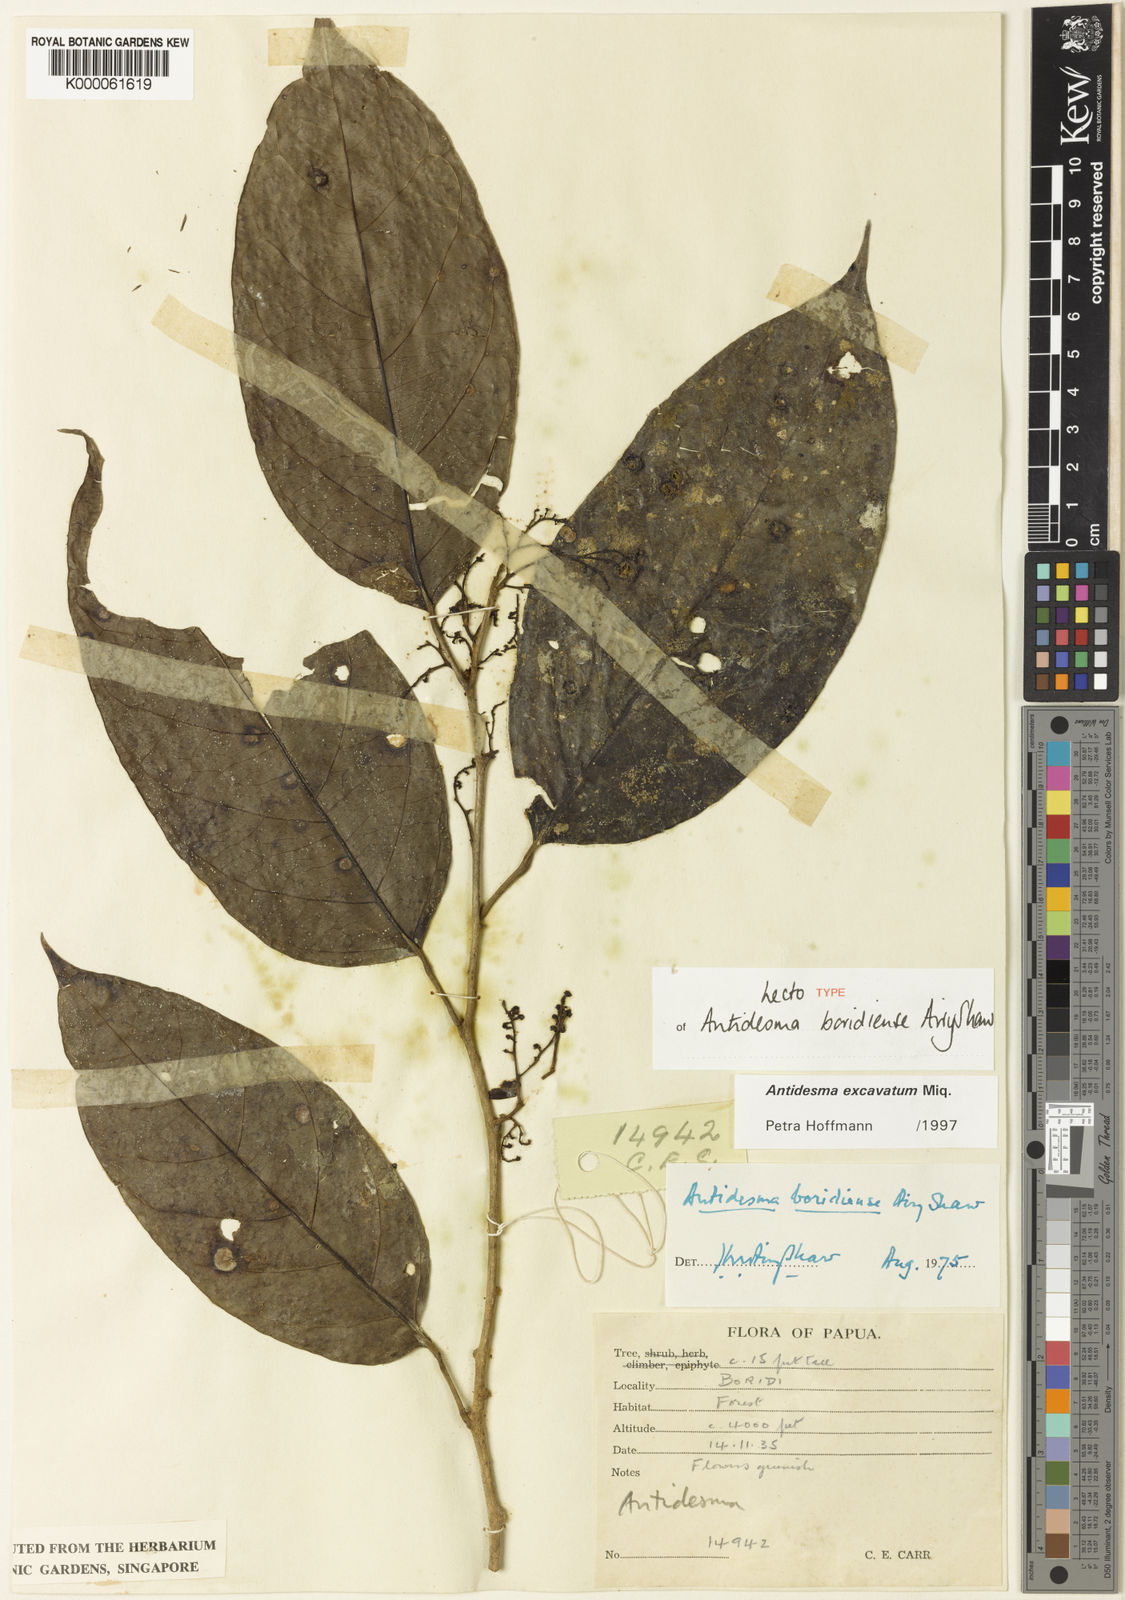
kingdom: Plantae
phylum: Tracheophyta
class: Magnoliopsida
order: Malpighiales
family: Phyllanthaceae
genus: Antidesma
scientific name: Antidesma excavatum
